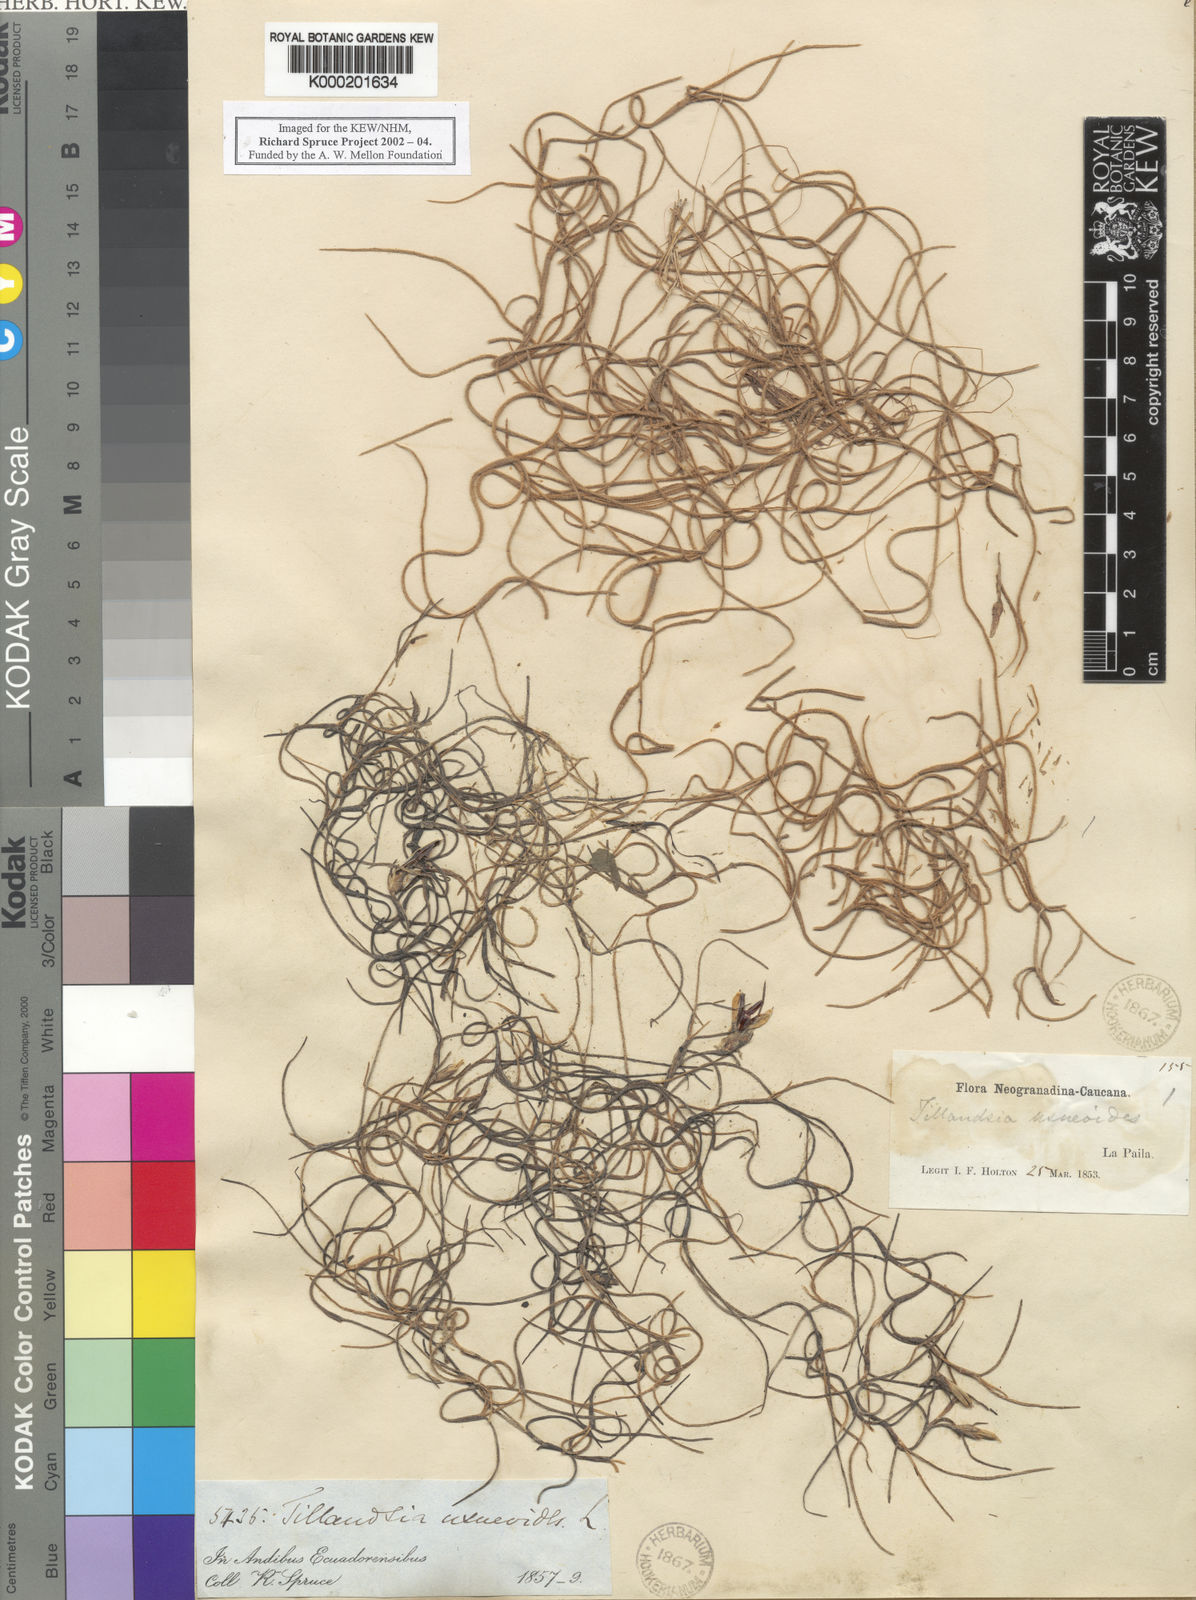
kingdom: Plantae
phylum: Tracheophyta
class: Liliopsida
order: Poales
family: Bromeliaceae
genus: Tillandsia
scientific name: Tillandsia usneoides
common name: Spanish moss
